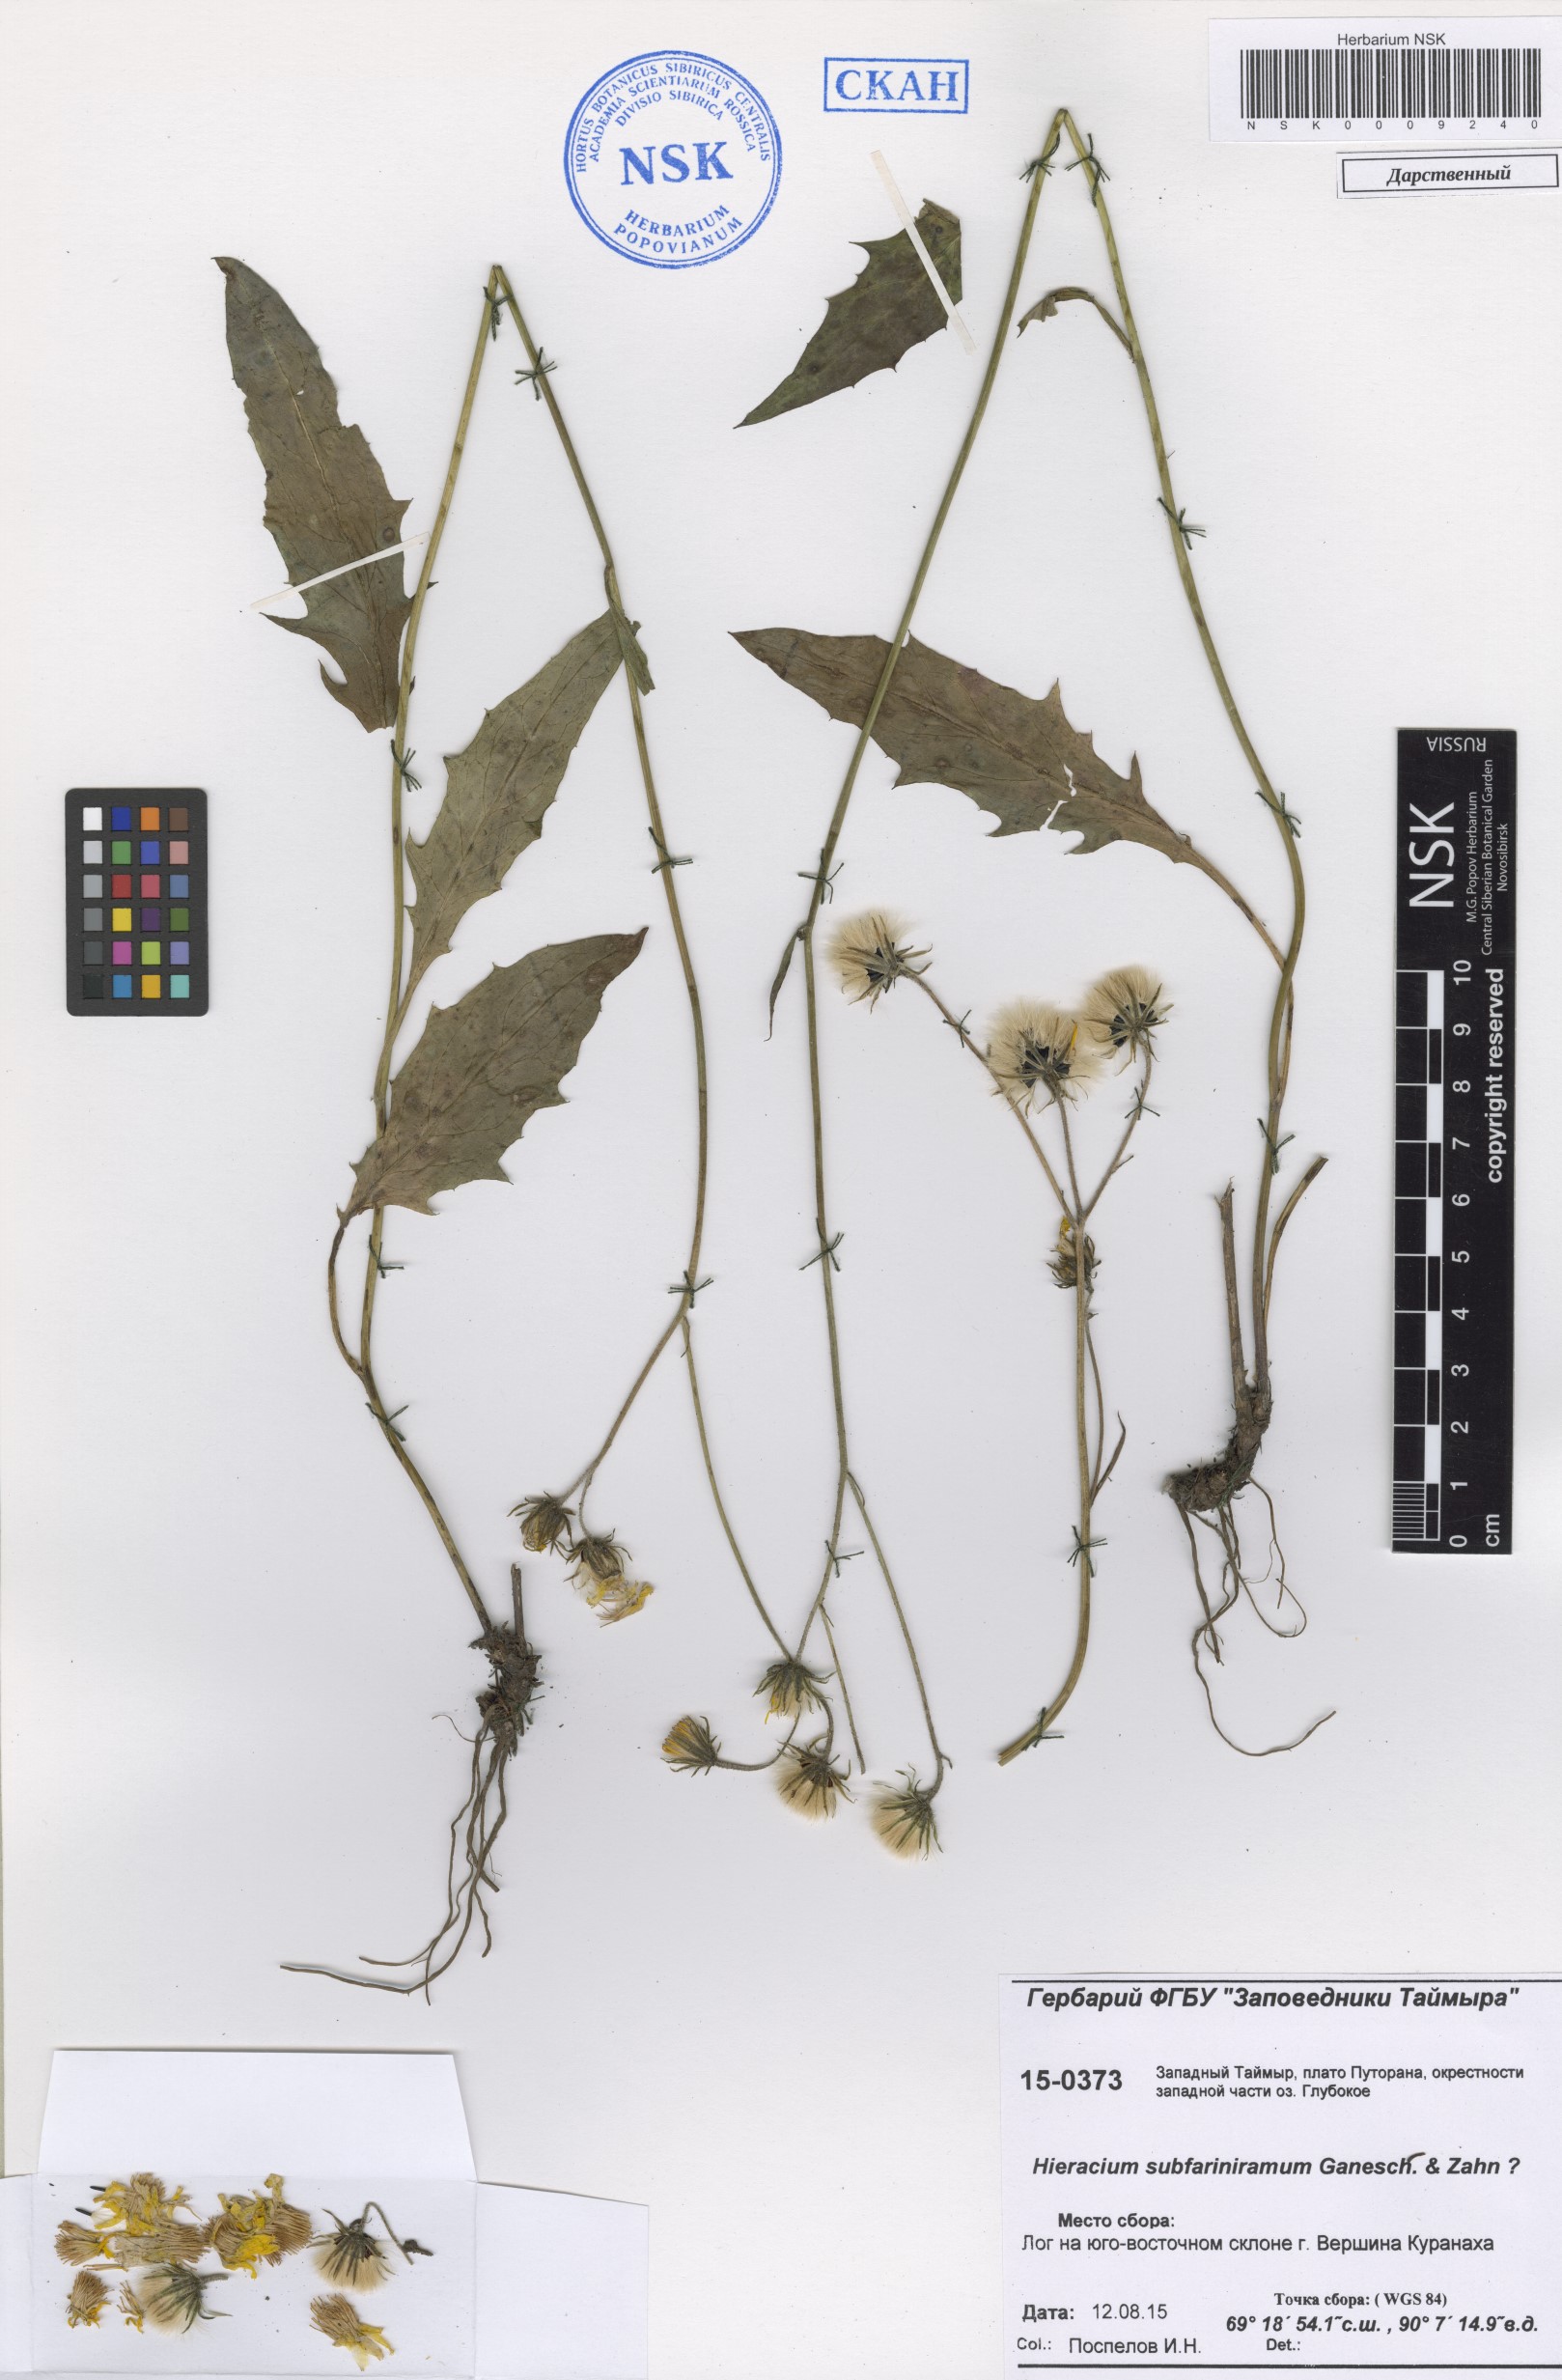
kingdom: Plantae
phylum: Tracheophyta
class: Magnoliopsida
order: Asterales
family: Asteraceae
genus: Hieracium
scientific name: Hieracium subfariniramum
